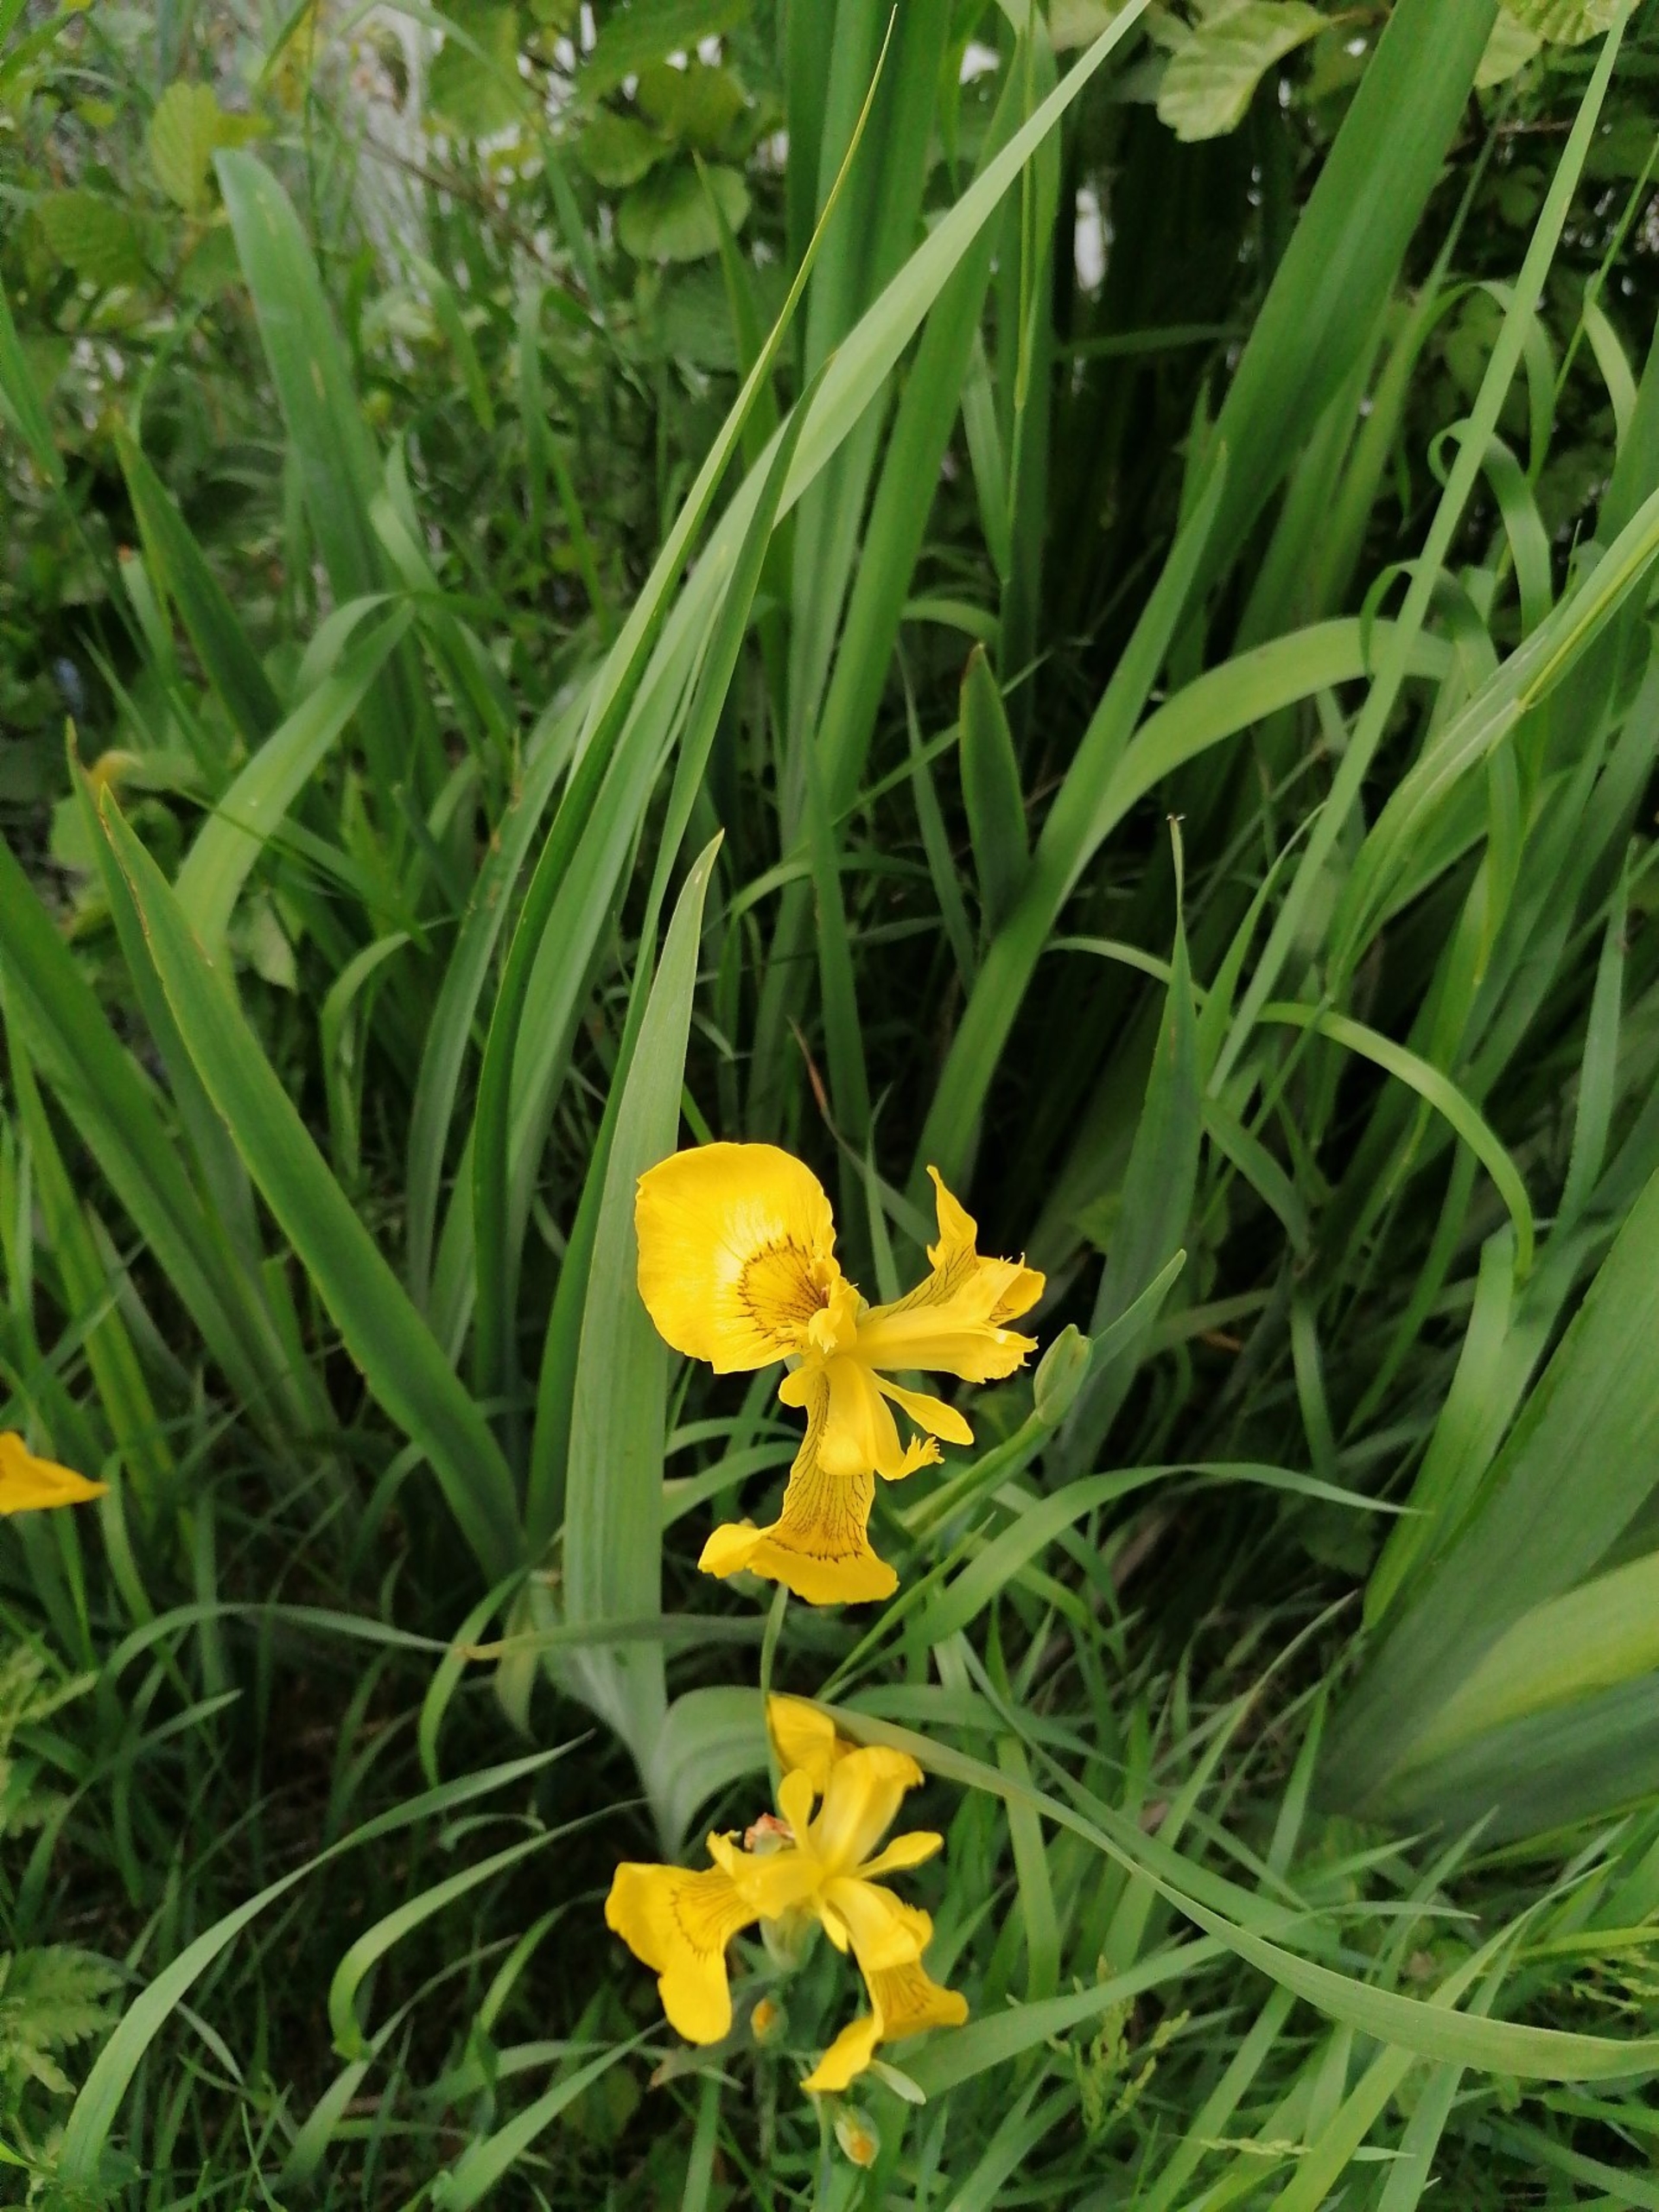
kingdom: Plantae
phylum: Tracheophyta
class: Liliopsida
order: Asparagales
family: Iridaceae
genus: Iris
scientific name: Iris pseudacorus
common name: Gul iris
